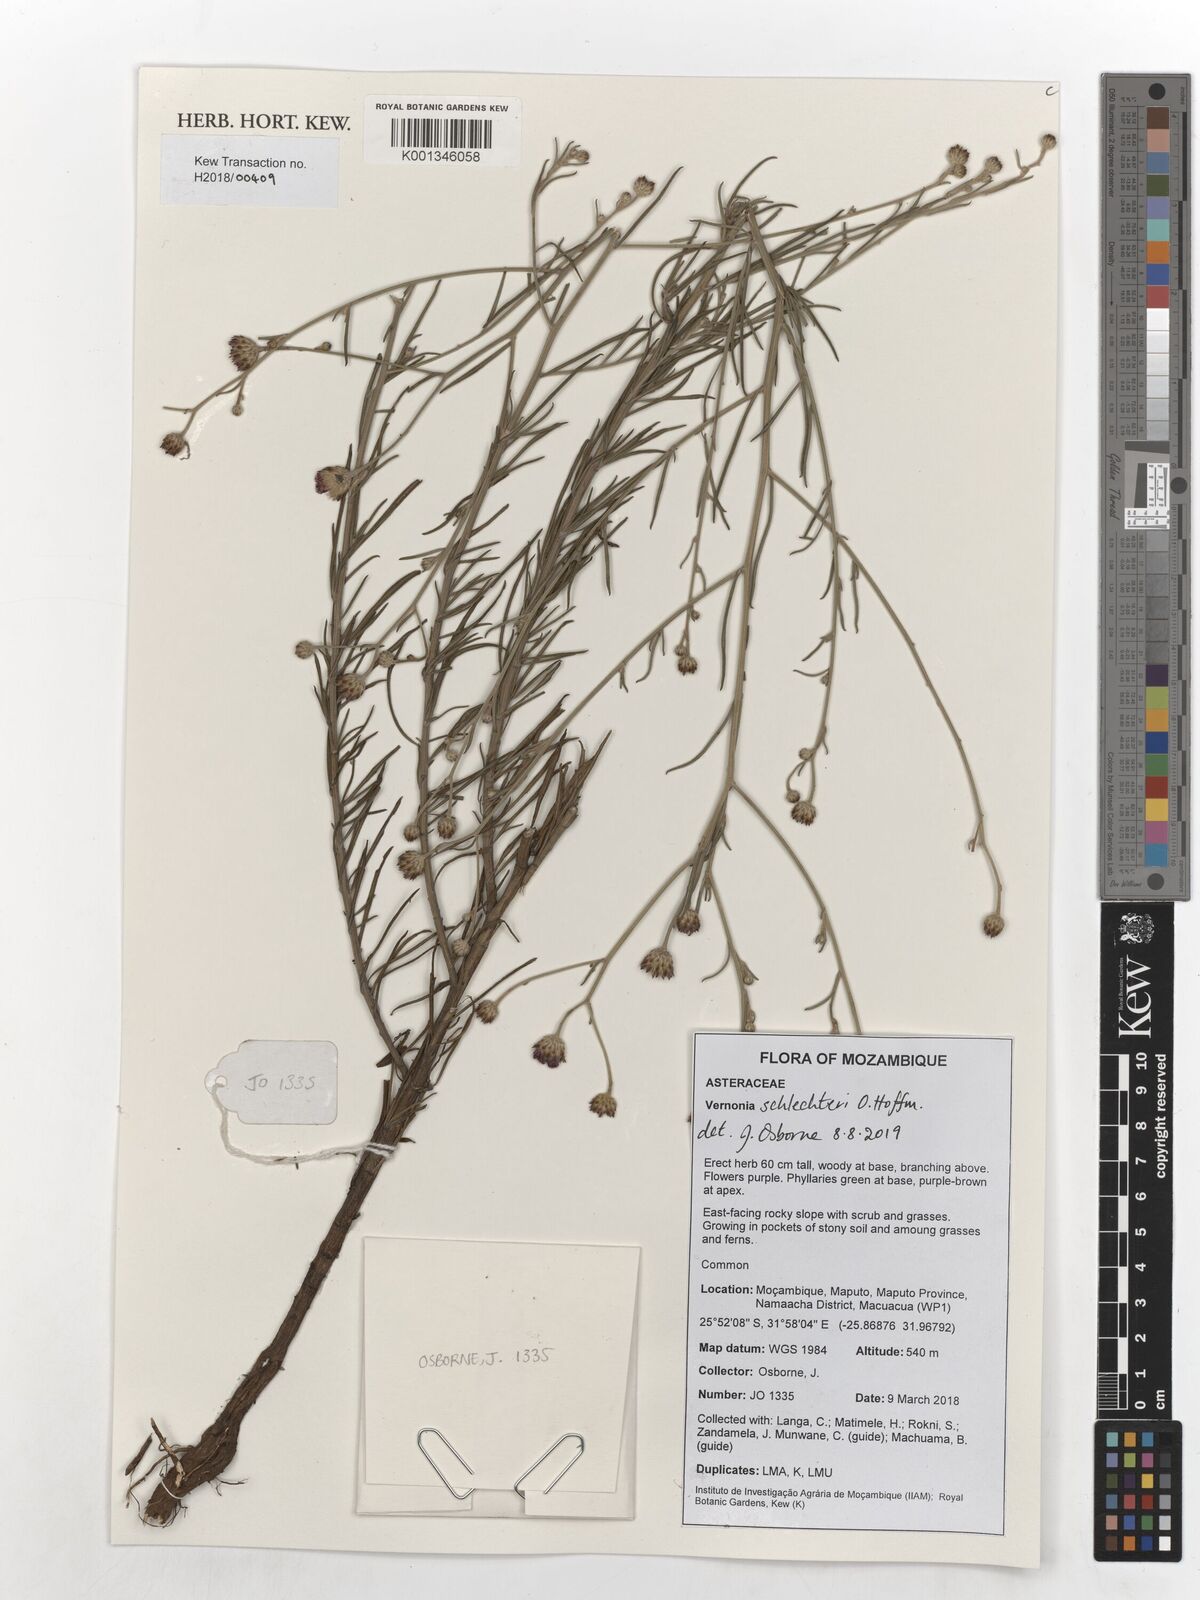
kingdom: Plantae
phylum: Tracheophyta
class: Magnoliopsida
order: Asterales
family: Asteraceae
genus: Oocephala
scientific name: Oocephala centauroides
